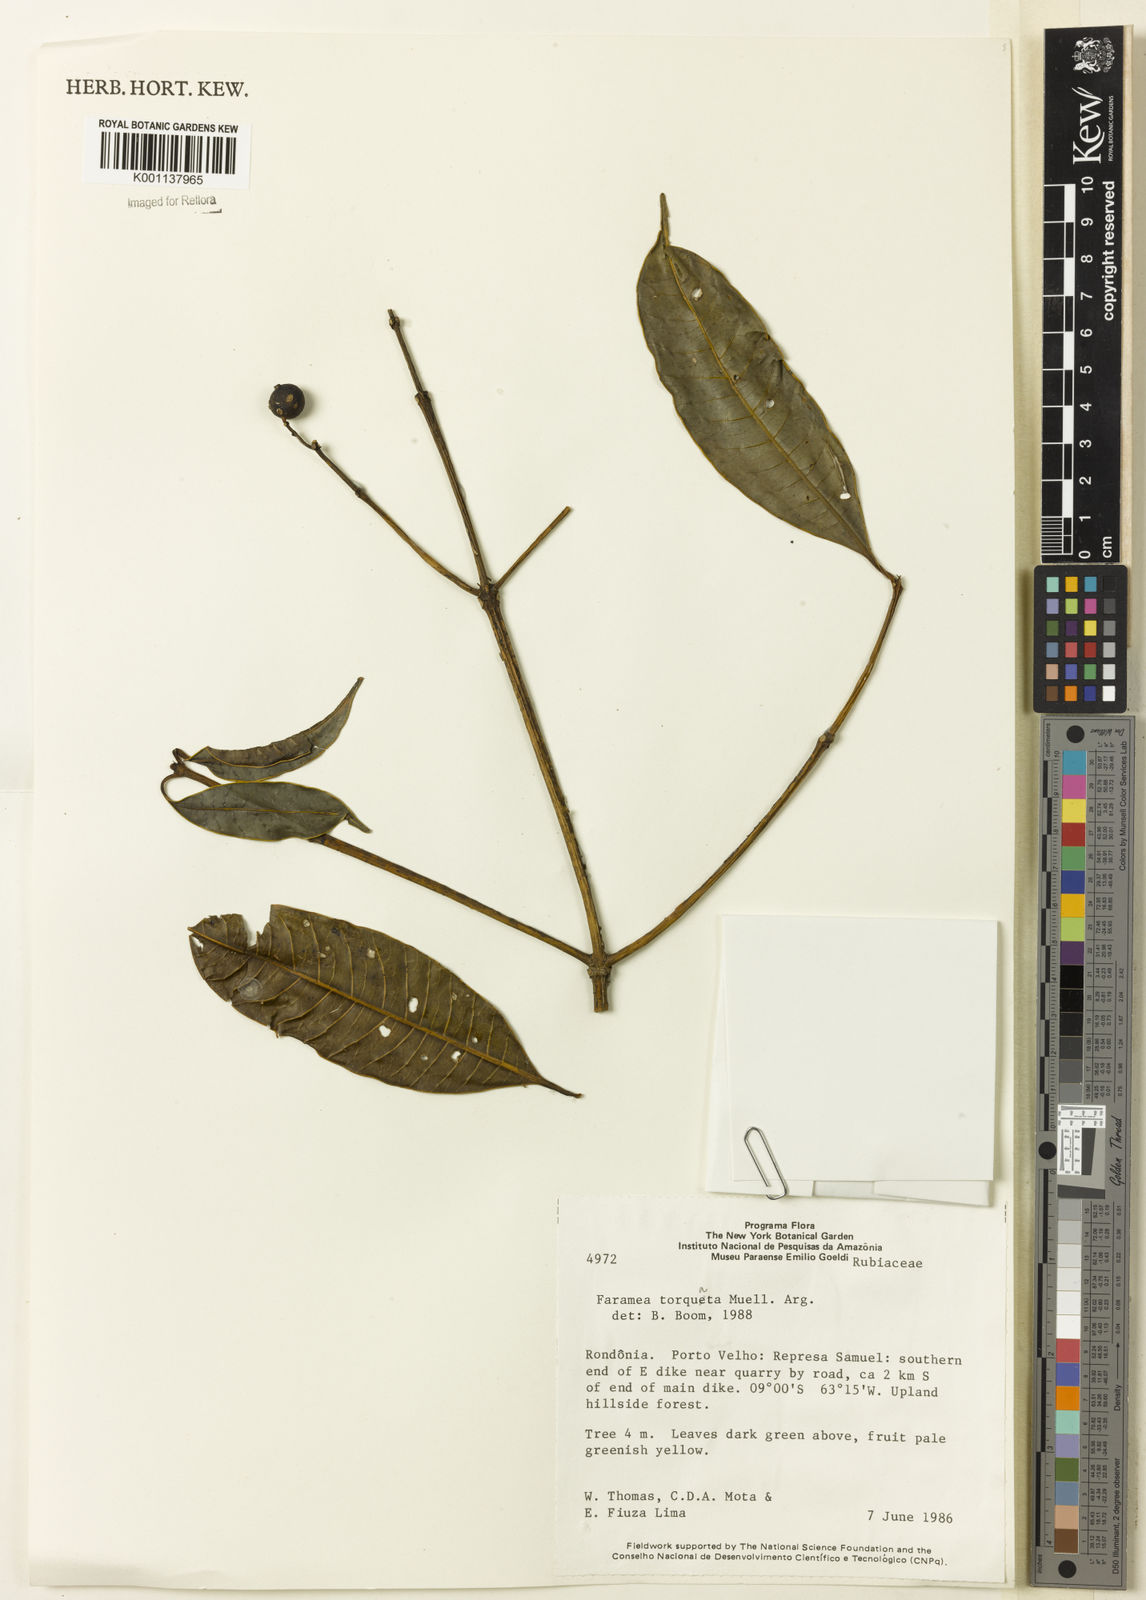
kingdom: Plantae
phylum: Tracheophyta
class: Magnoliopsida
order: Gentianales
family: Rubiaceae
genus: Faramea
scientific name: Faramea
